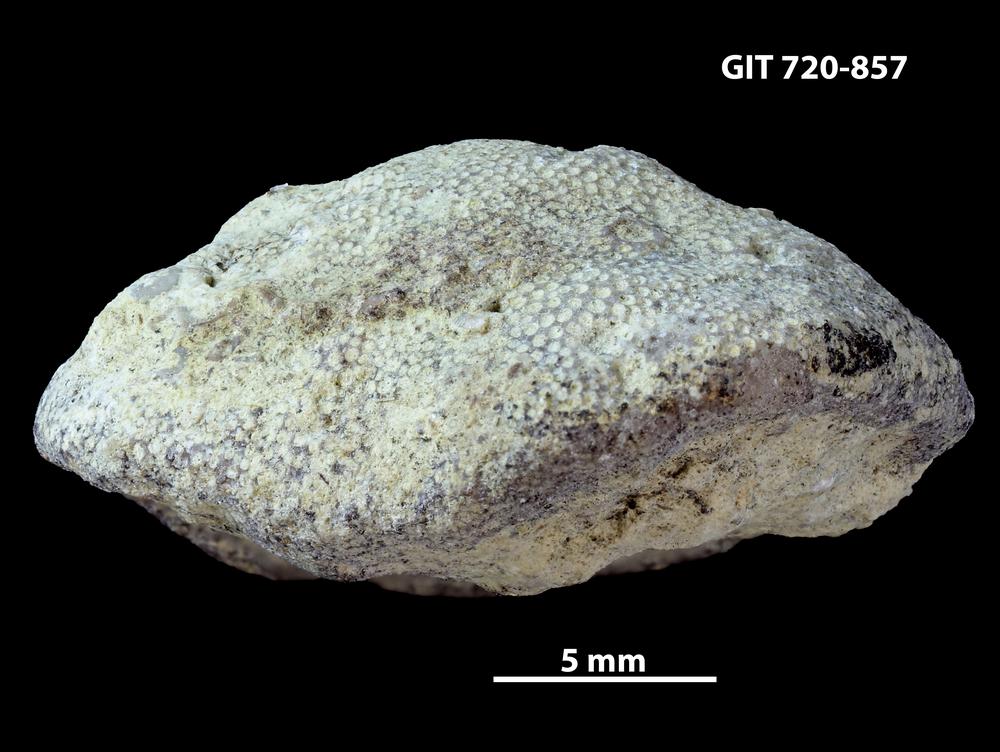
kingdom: Animalia
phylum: Bryozoa
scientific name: Bryozoa
